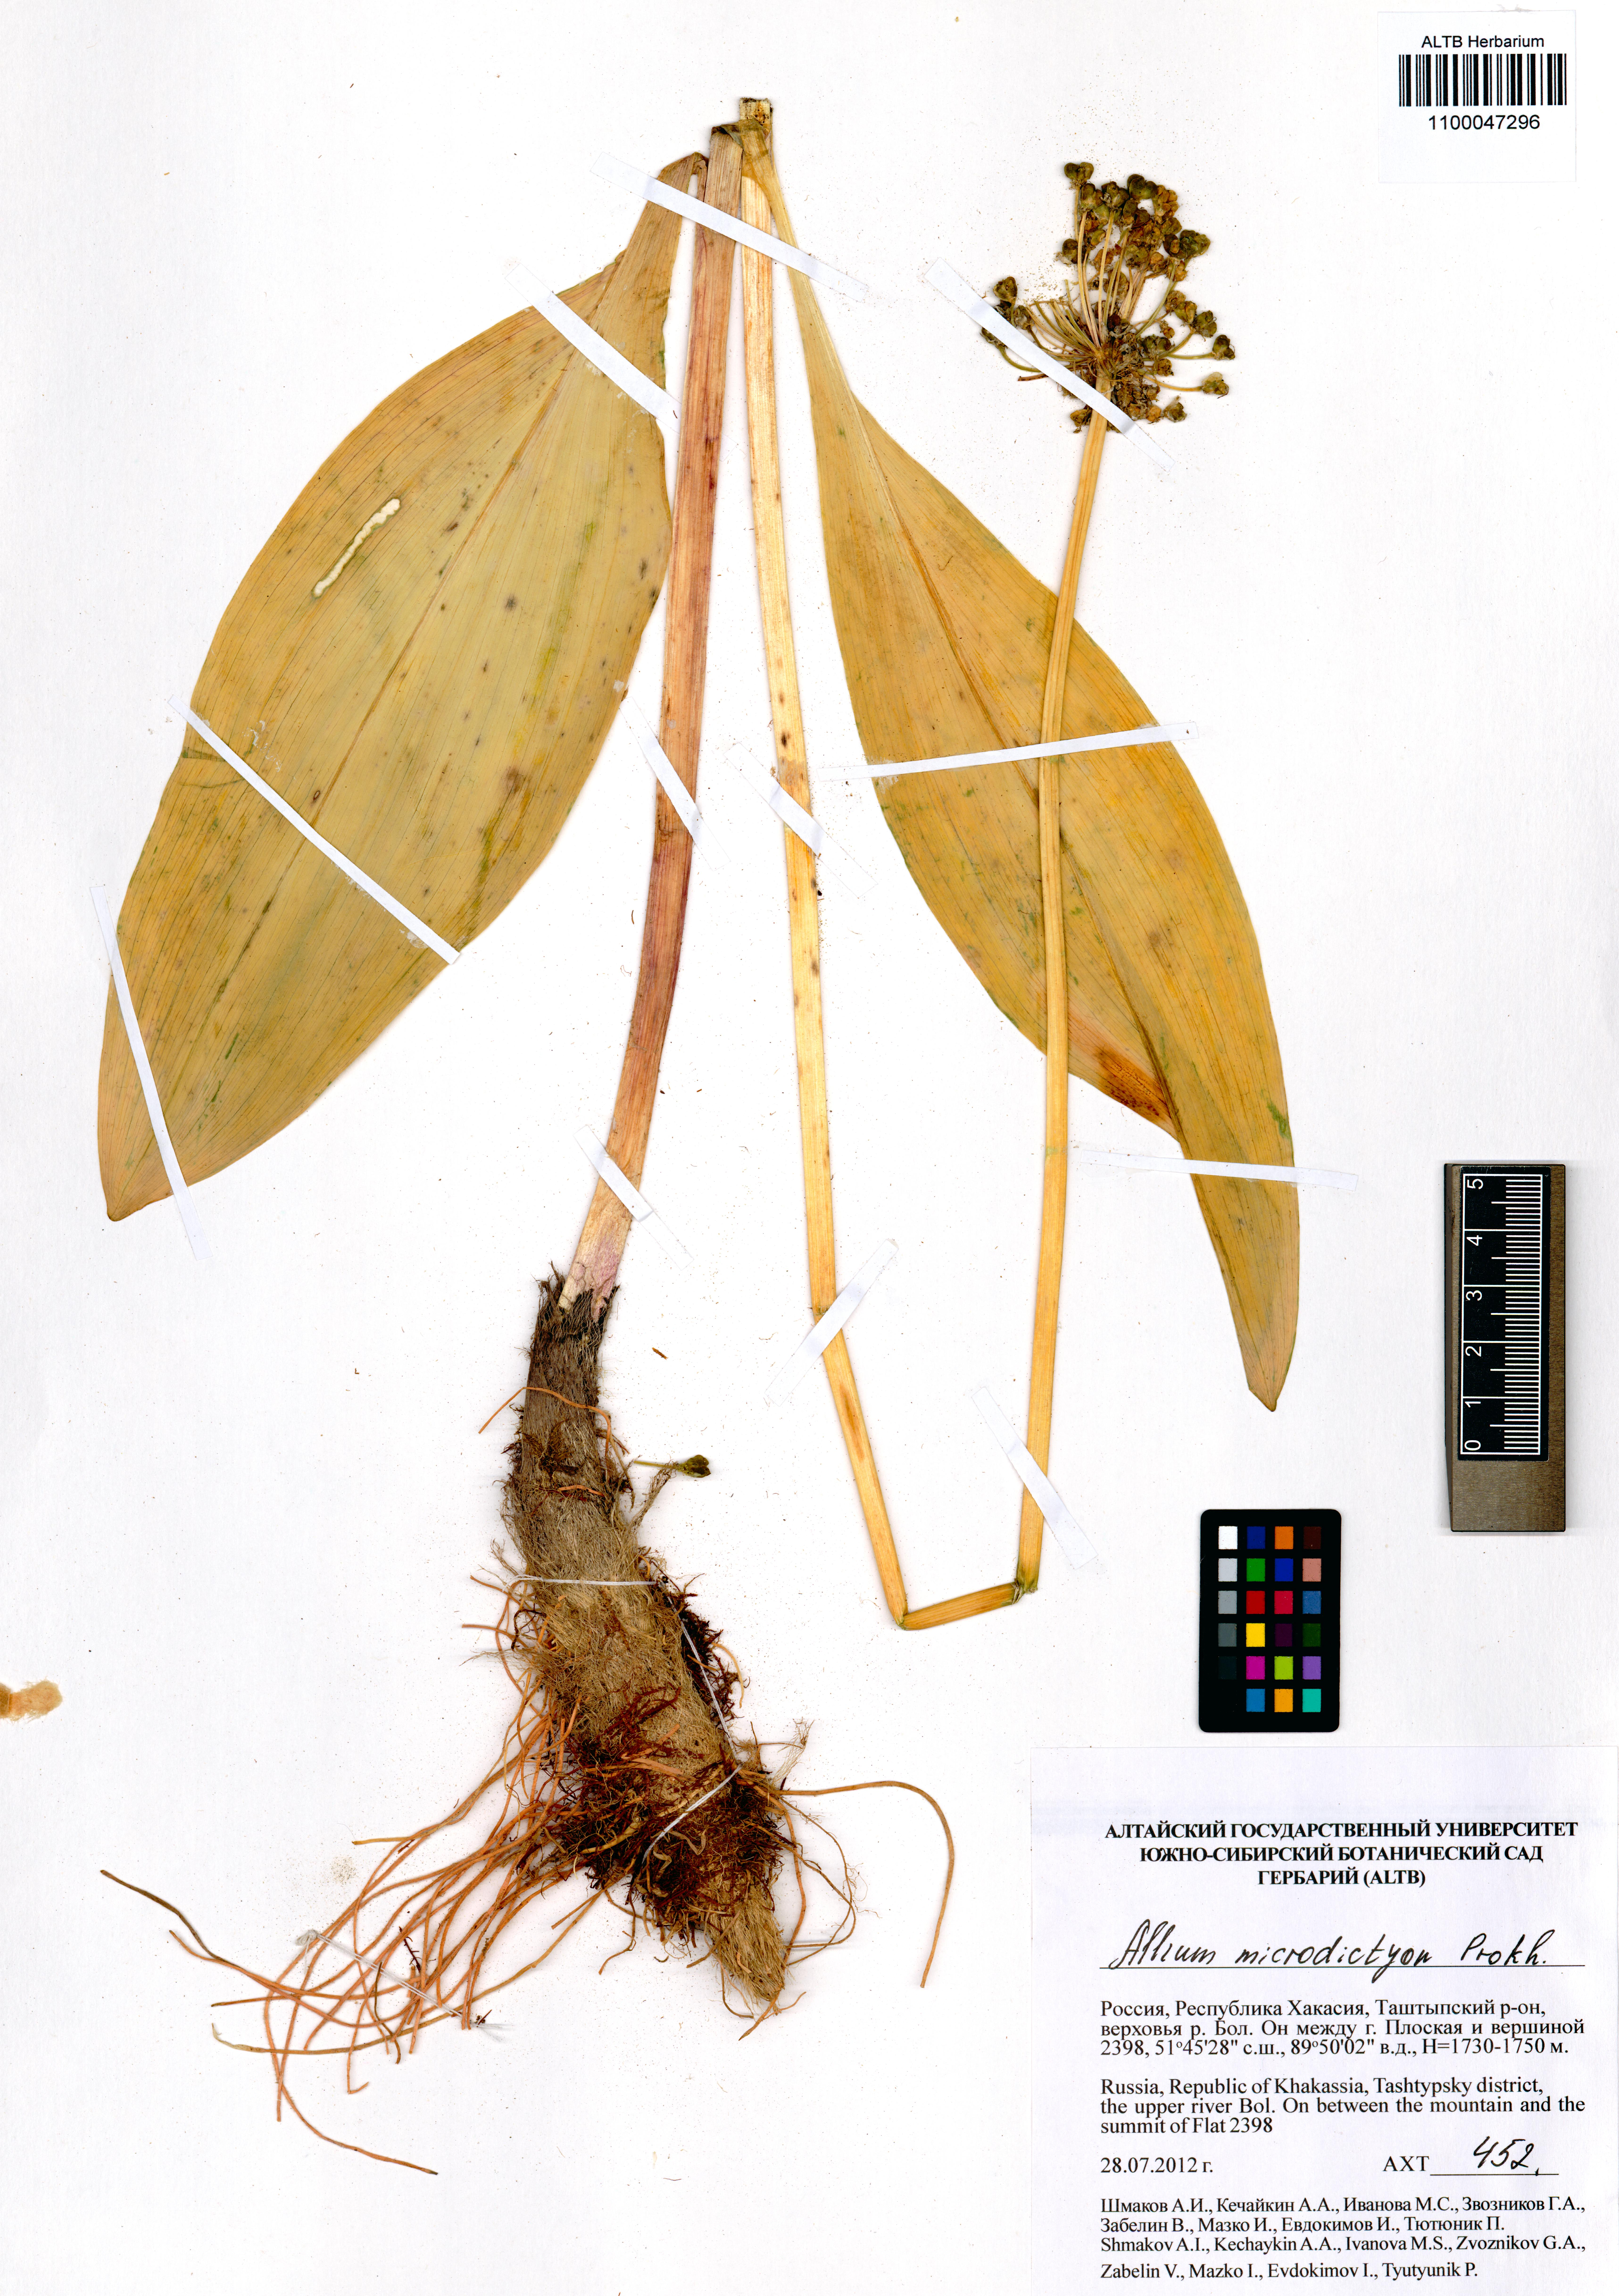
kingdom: Plantae
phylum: Tracheophyta
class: Liliopsida
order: Asparagales
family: Amaryllidaceae
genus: Allium
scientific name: Allium microdictyon
